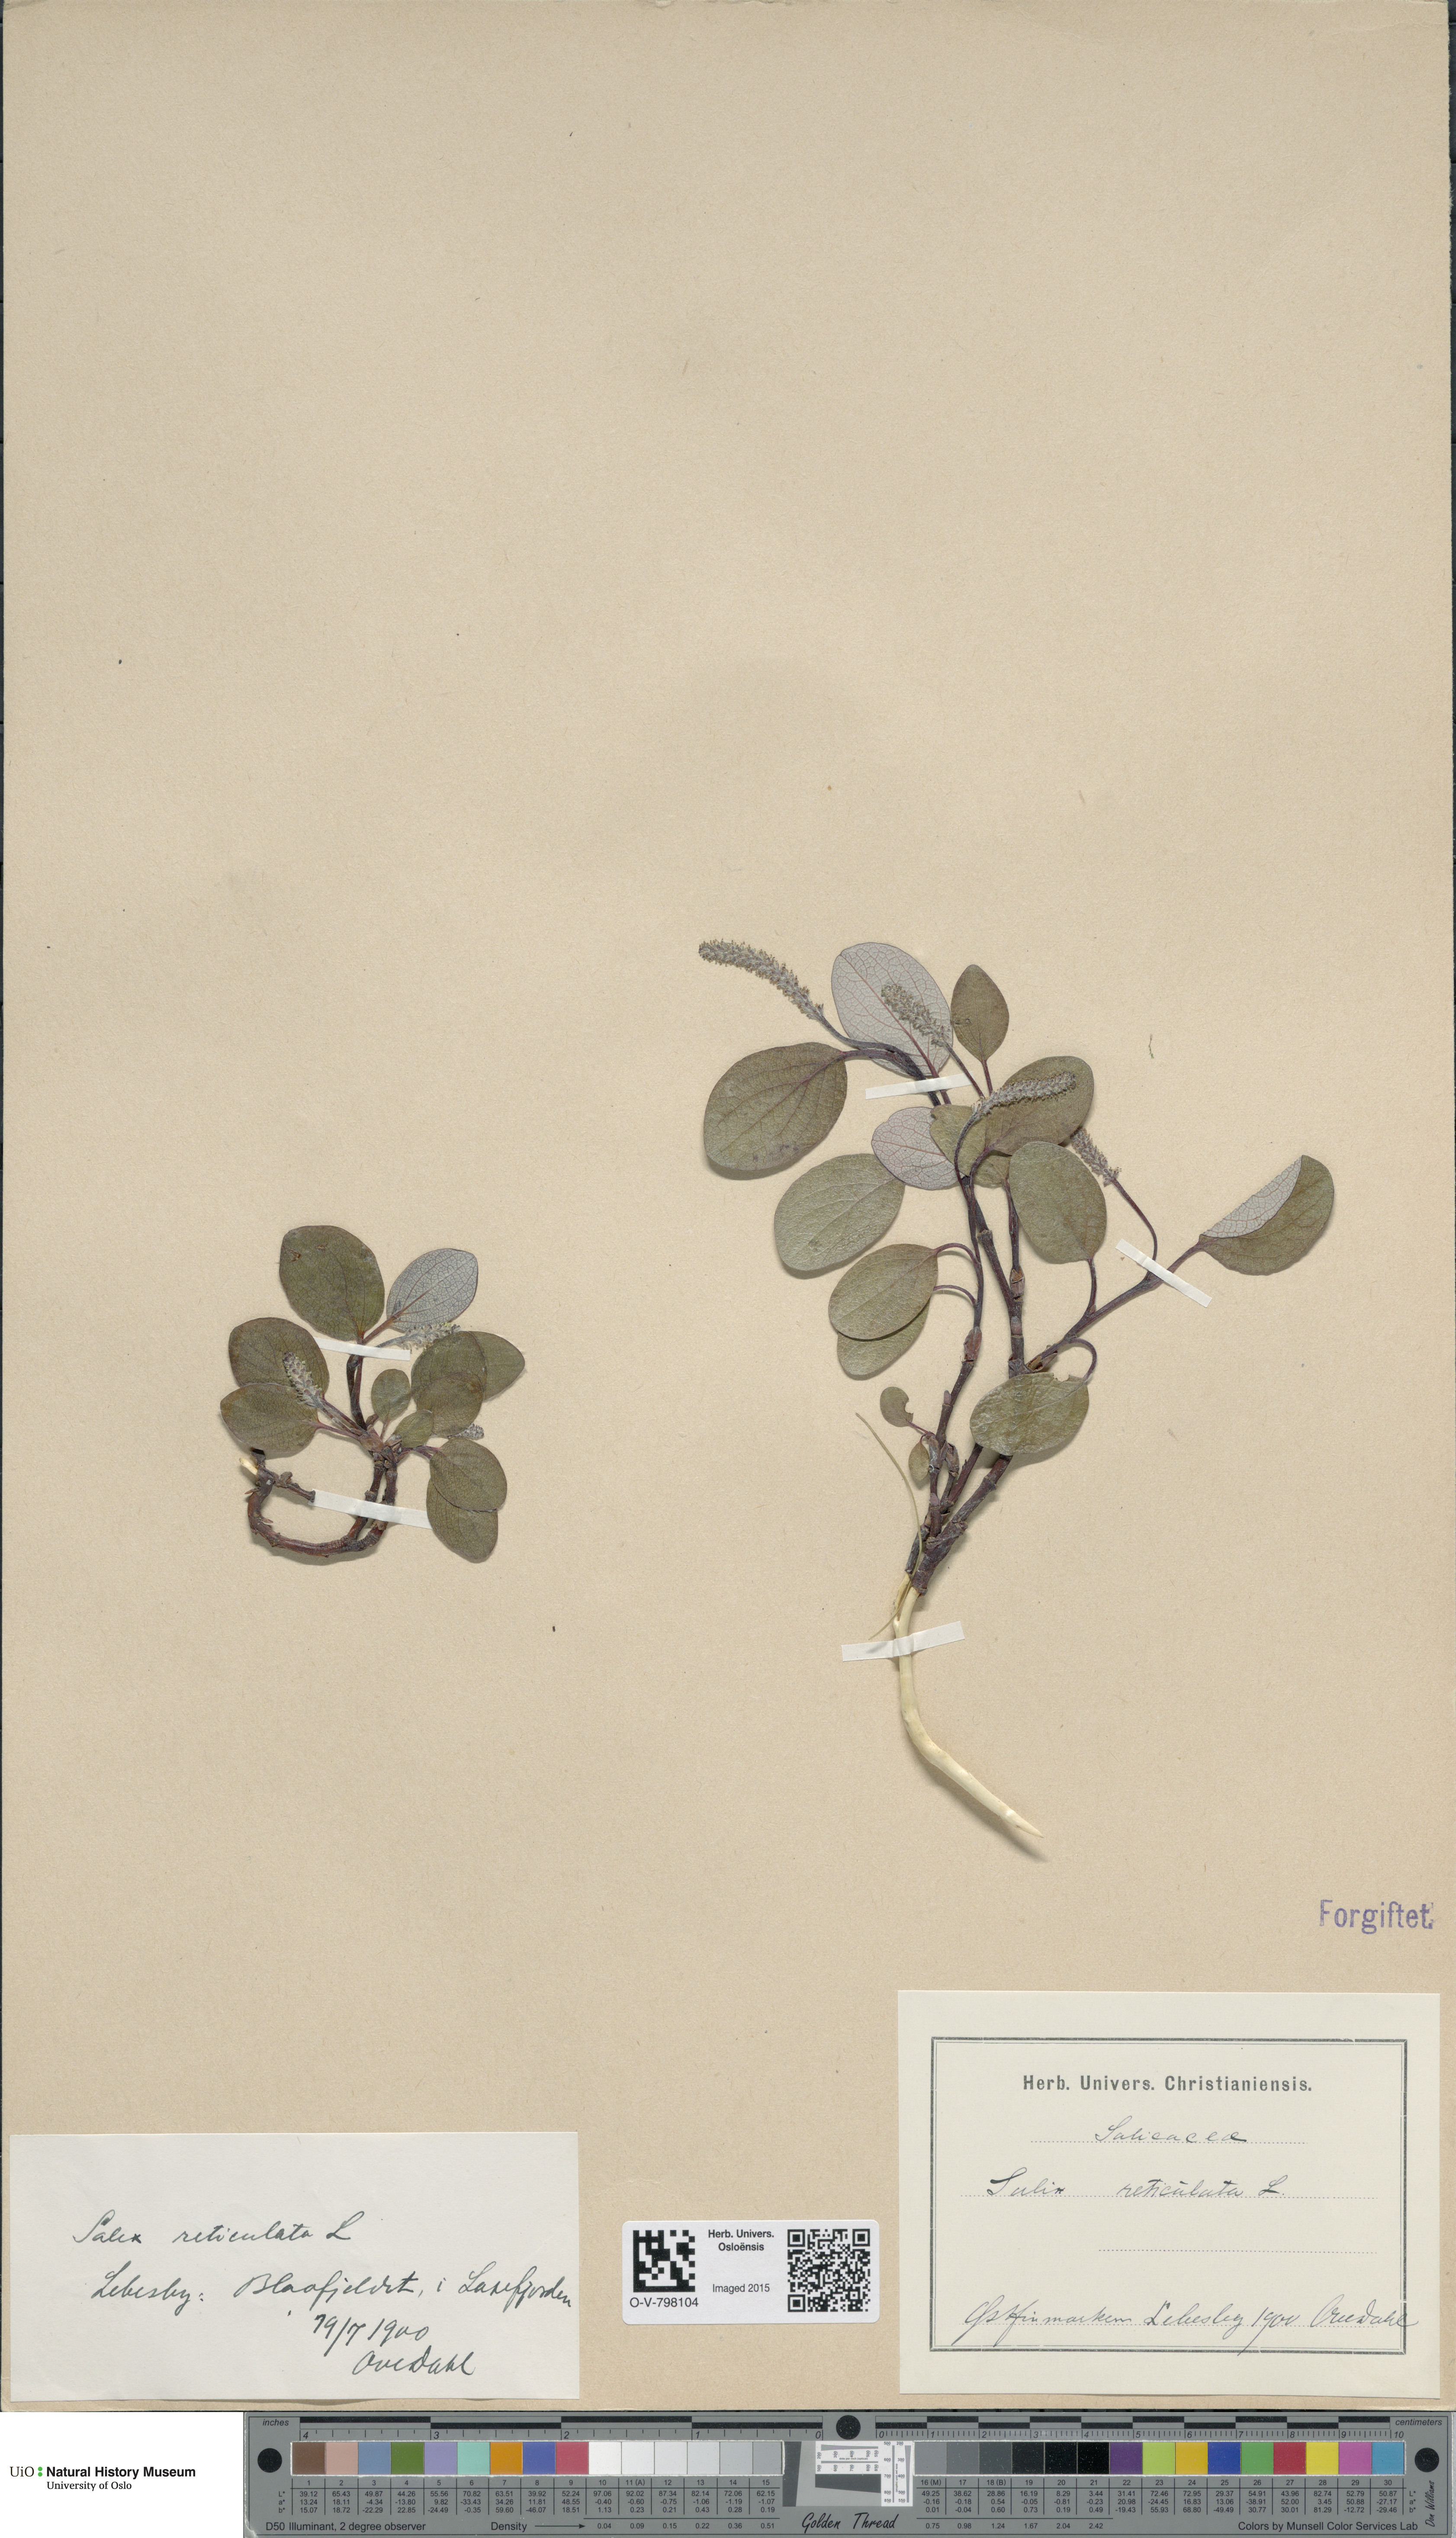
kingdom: Plantae
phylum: Tracheophyta
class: Magnoliopsida
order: Malpighiales
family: Salicaceae
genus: Salix
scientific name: Salix reticulata
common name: Net-leaved willow
